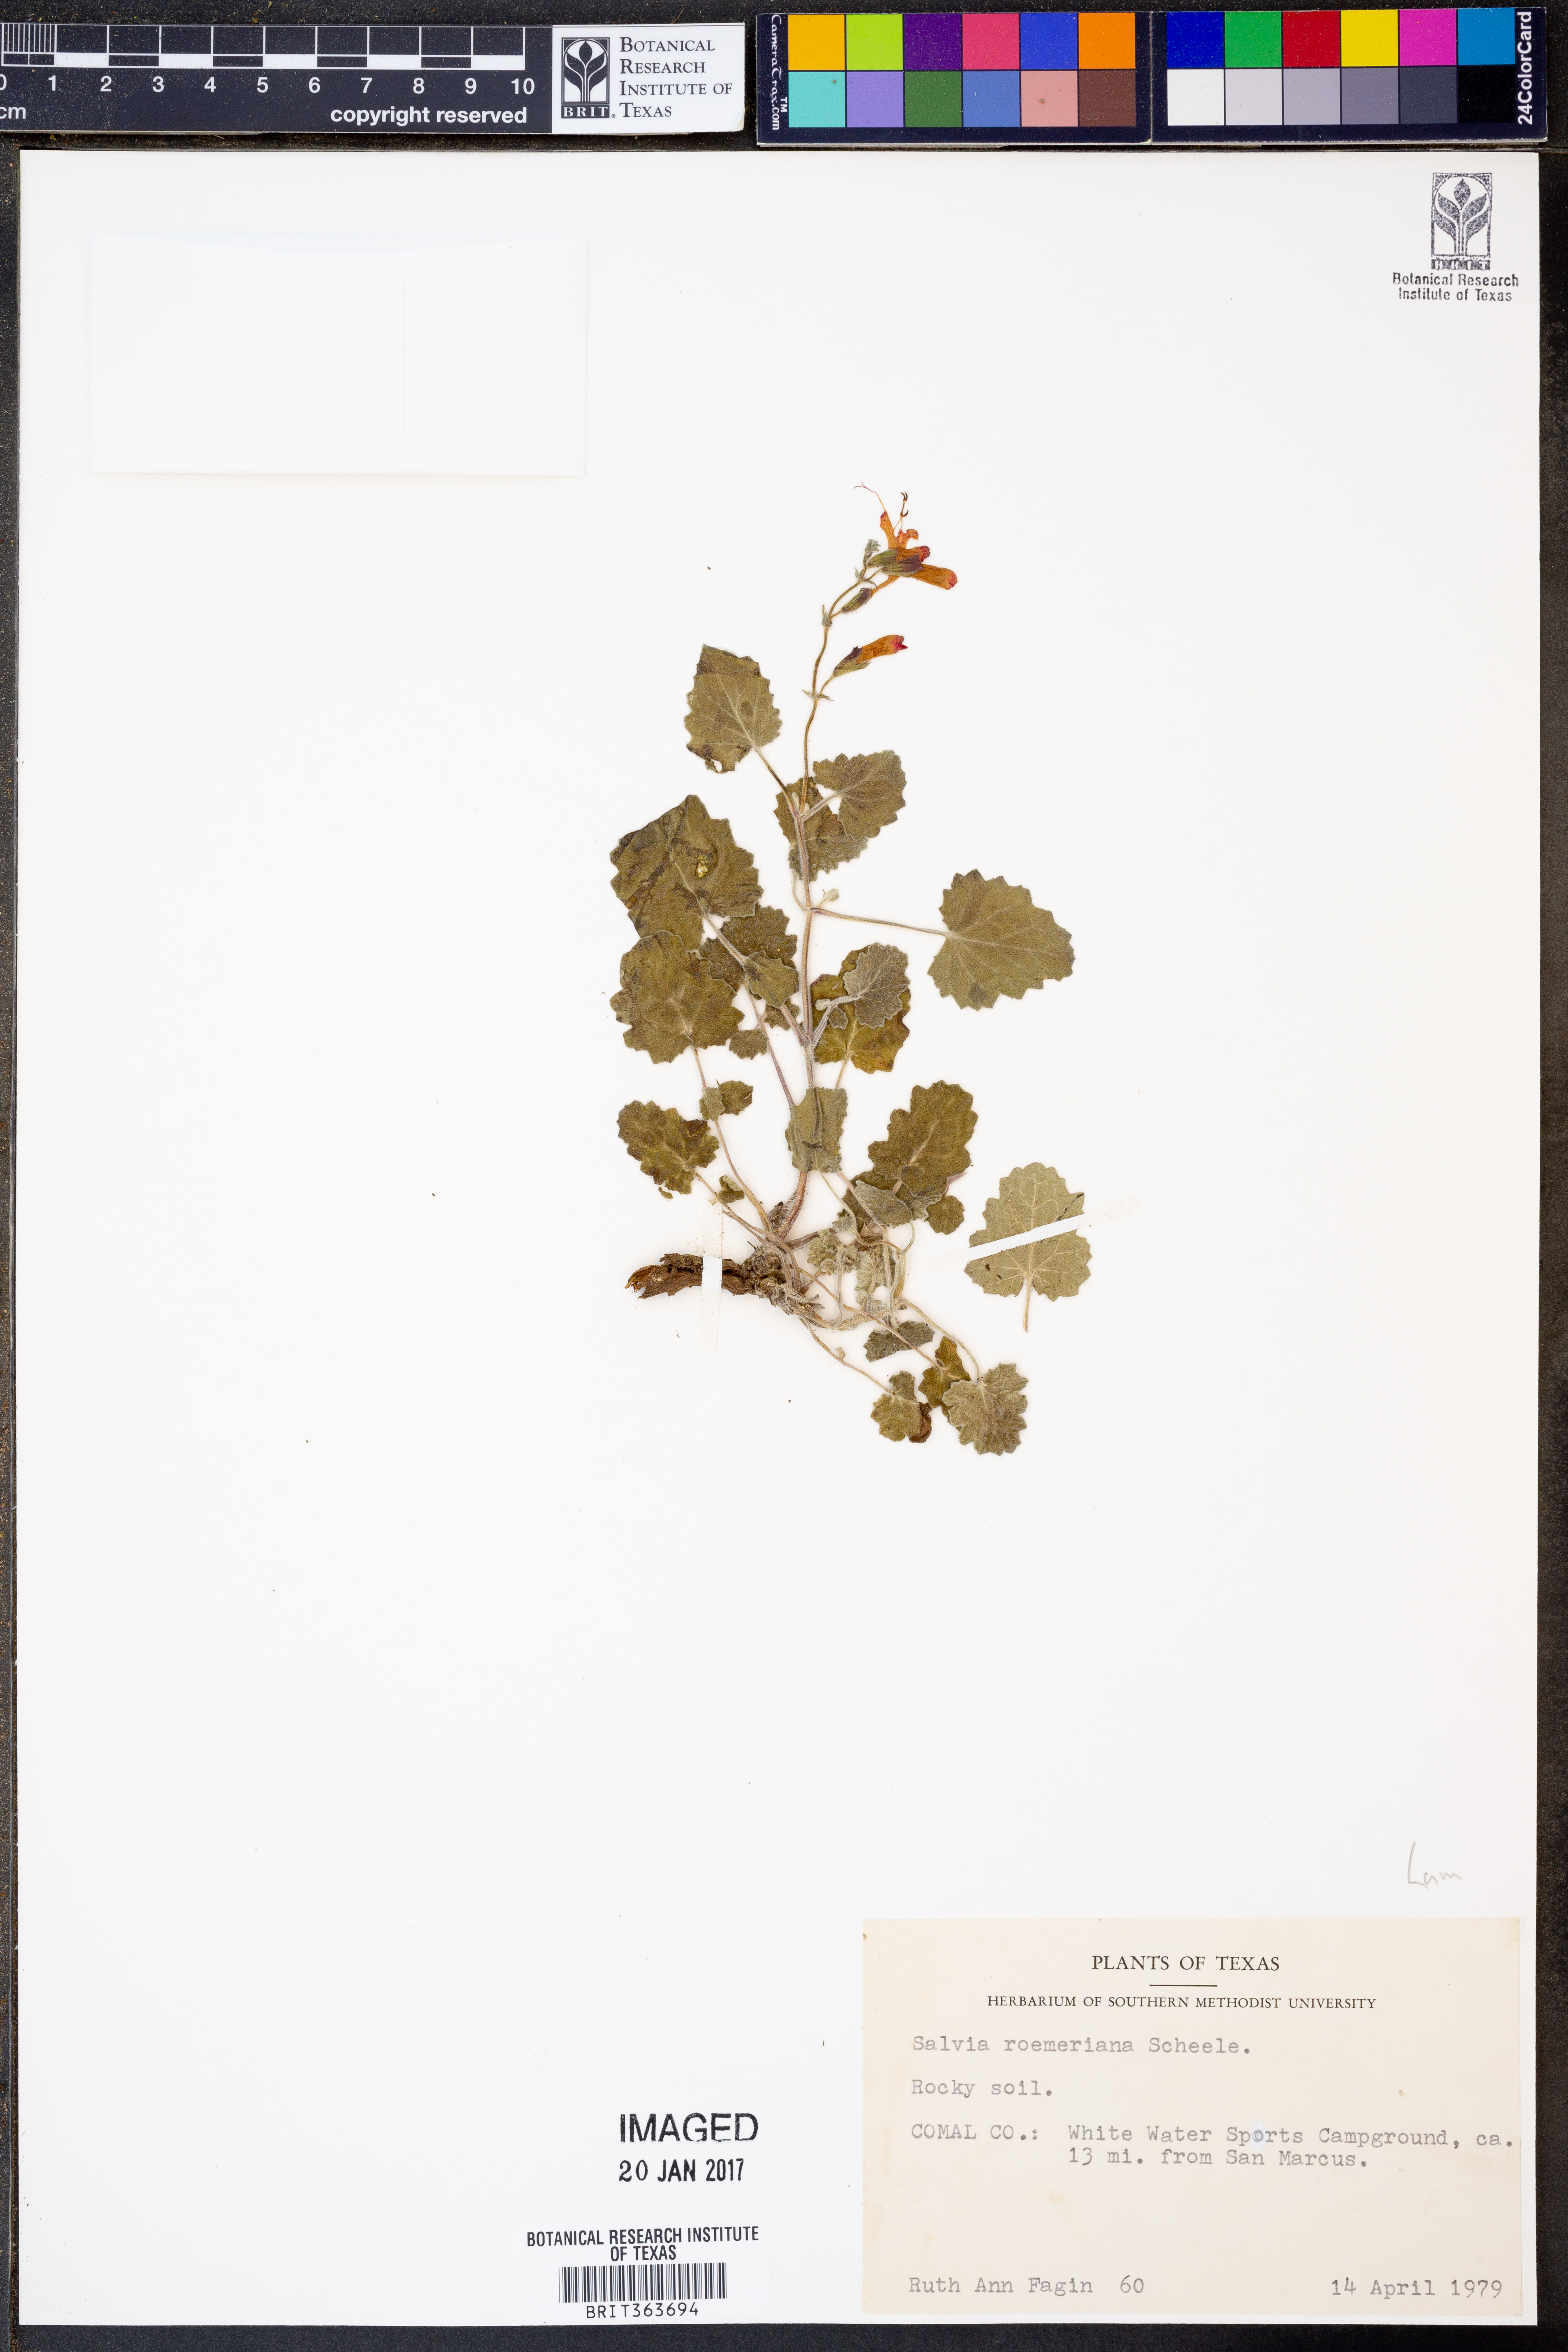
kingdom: Plantae
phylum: Tracheophyta
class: Magnoliopsida
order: Lamiales
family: Lamiaceae
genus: Salvia
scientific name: Salvia roemeriana
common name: Cedar sage
